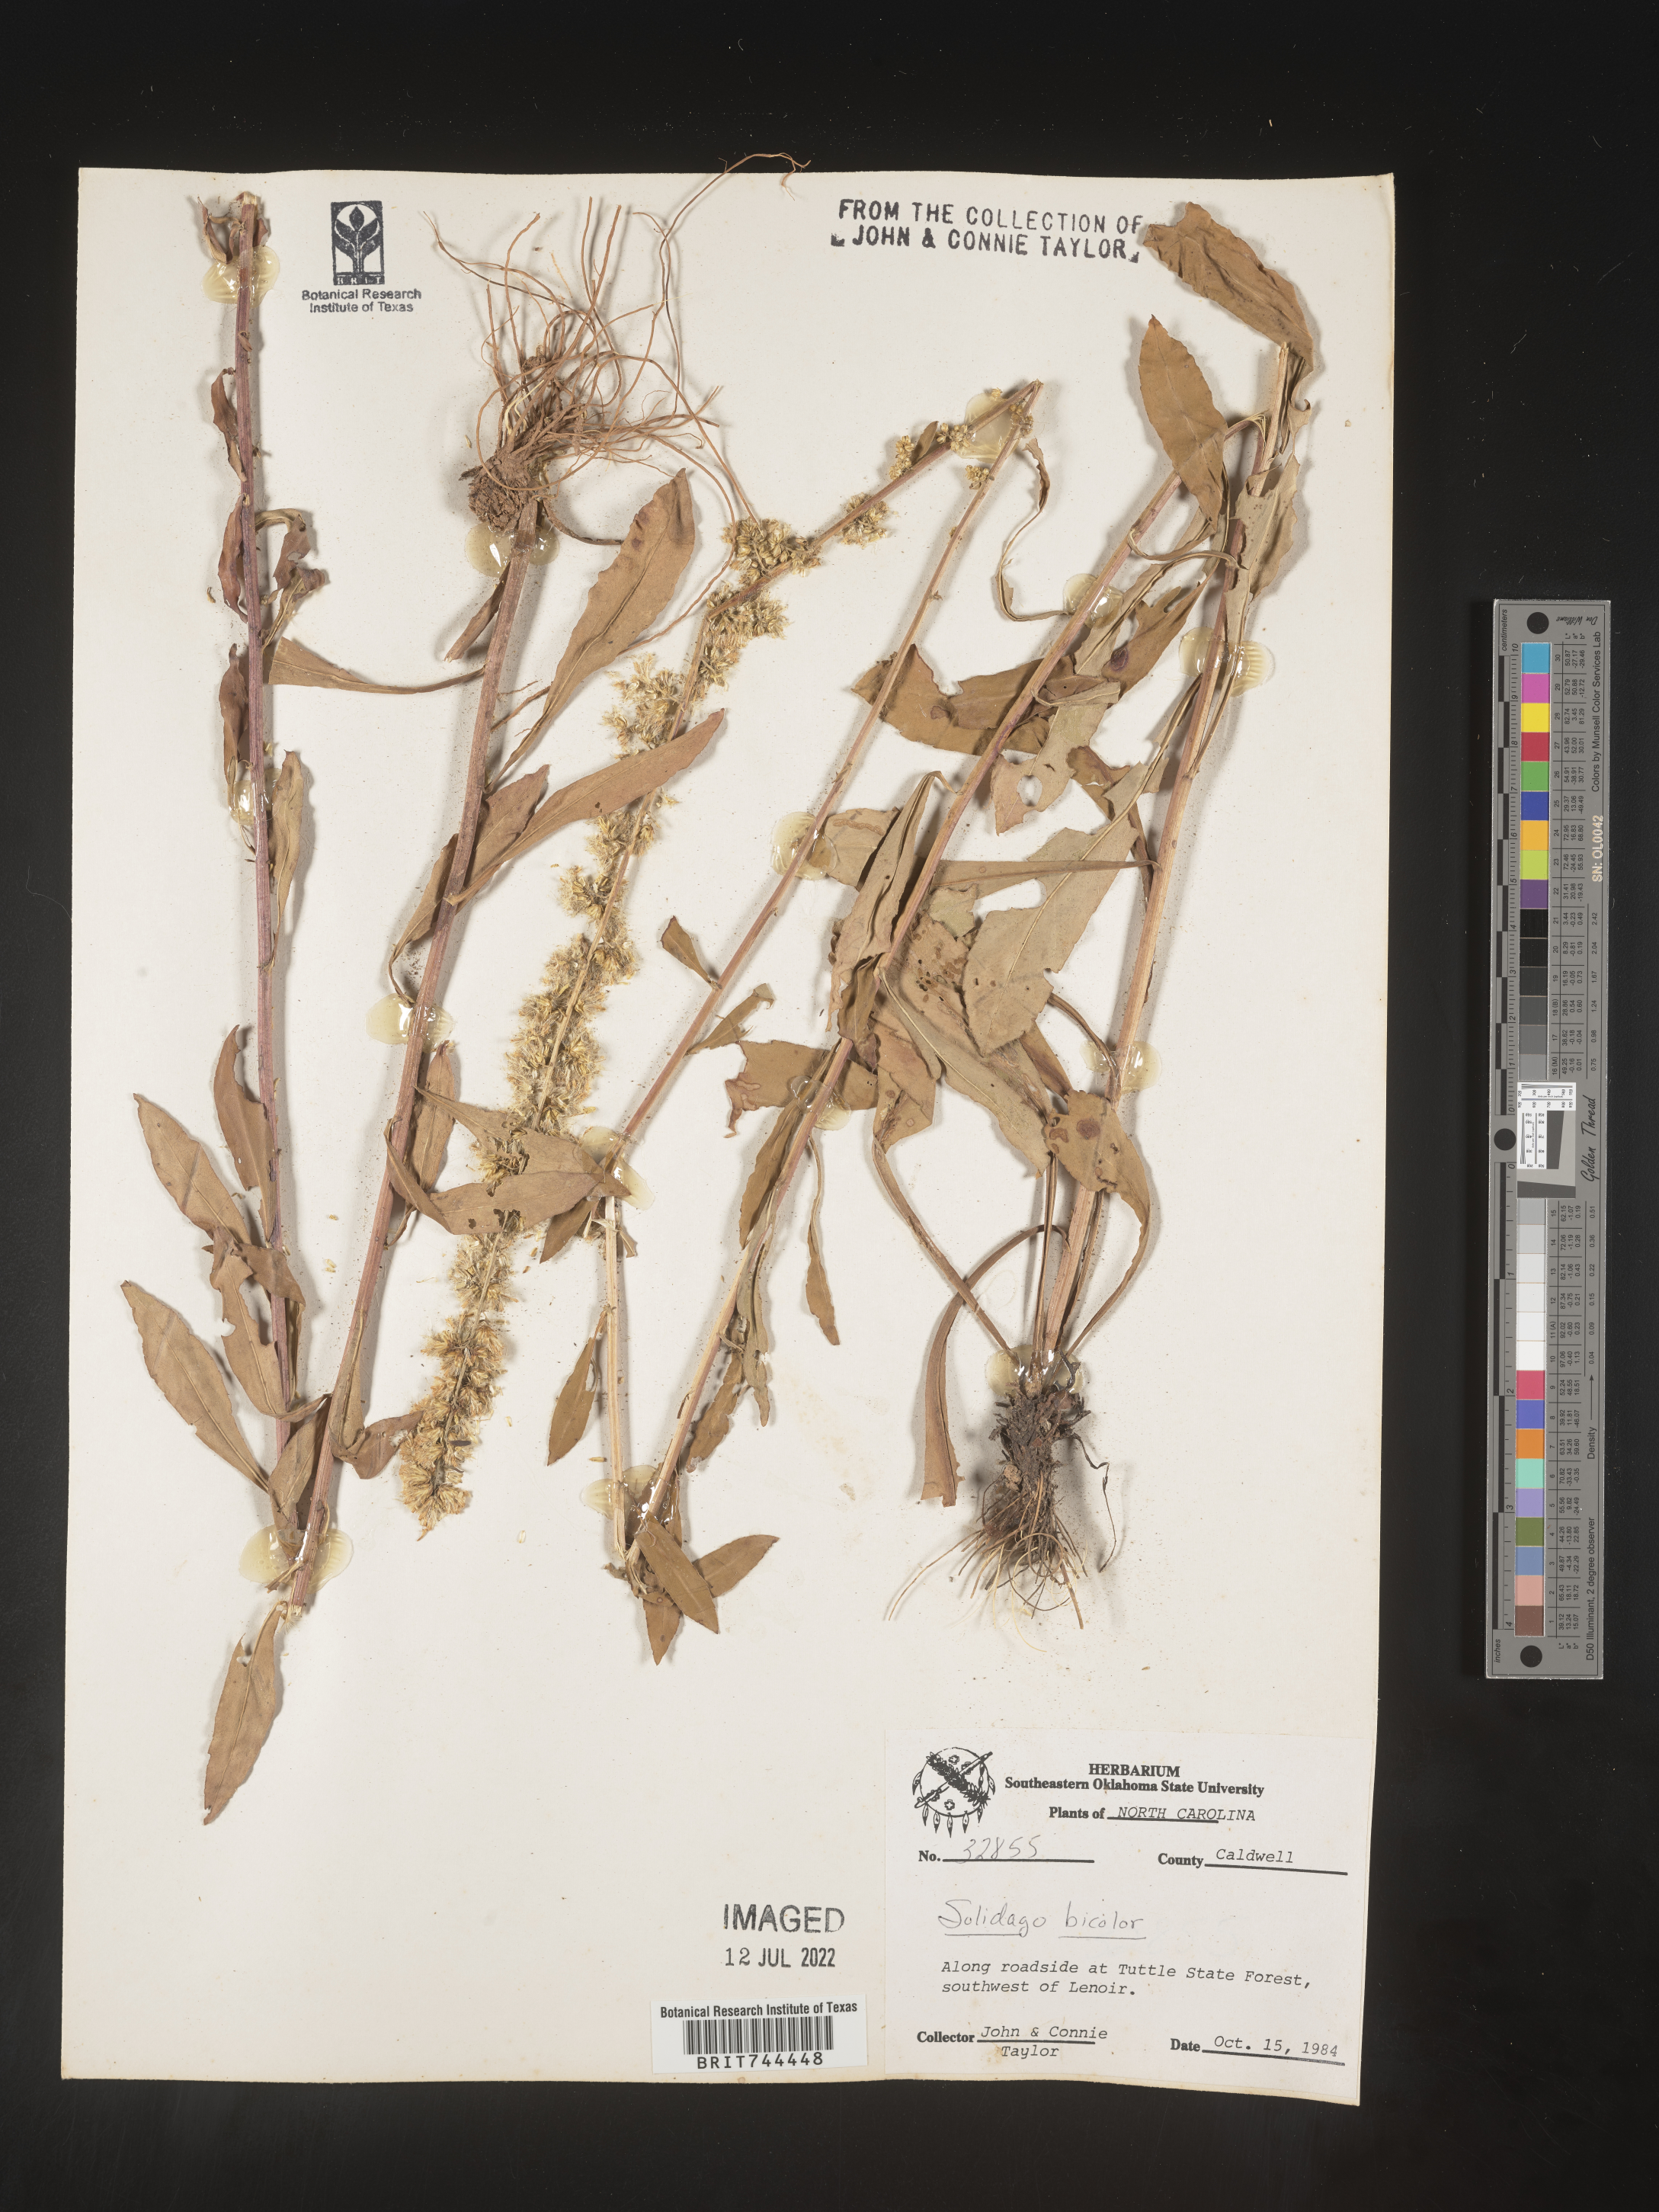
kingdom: Plantae
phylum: Tracheophyta
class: Magnoliopsida
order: Asterales
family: Asteraceae
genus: Solidago
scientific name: Solidago bicolor
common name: Silverrod
